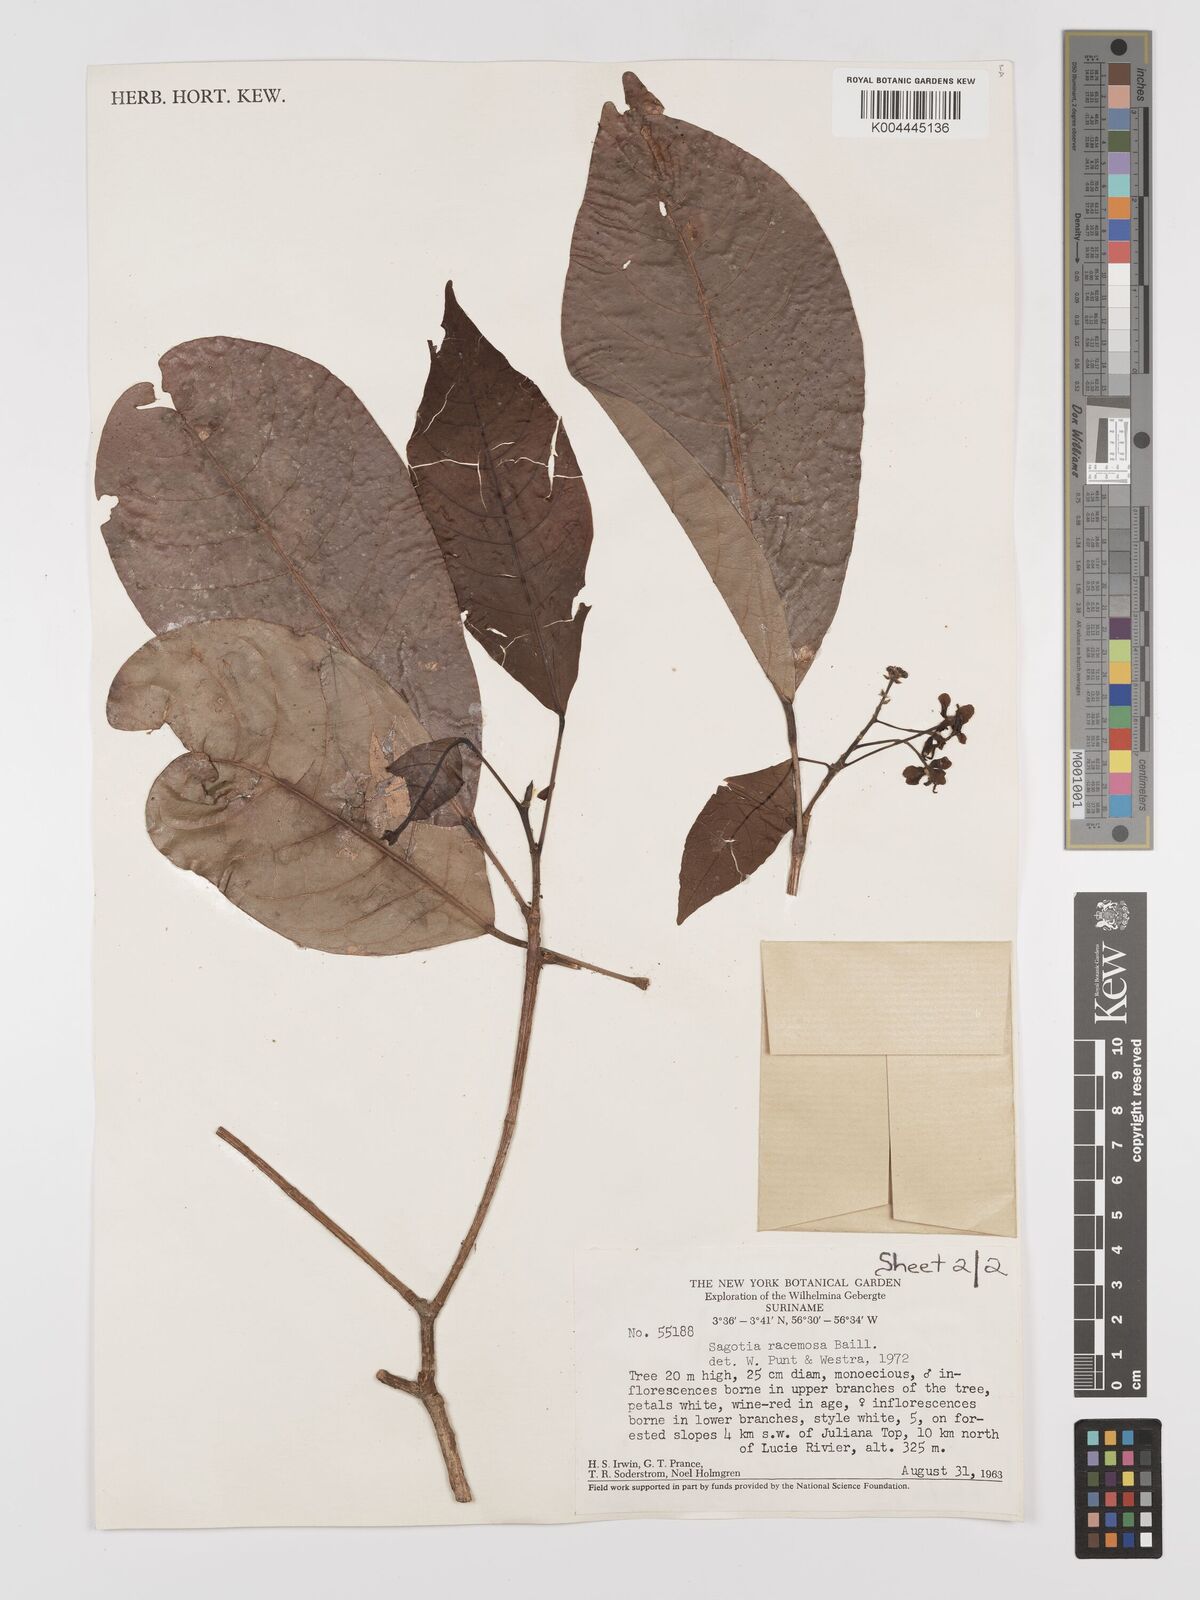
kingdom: Plantae
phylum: Tracheophyta
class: Magnoliopsida
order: Malpighiales
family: Euphorbiaceae
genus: Sagotia
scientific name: Sagotia racemosa
